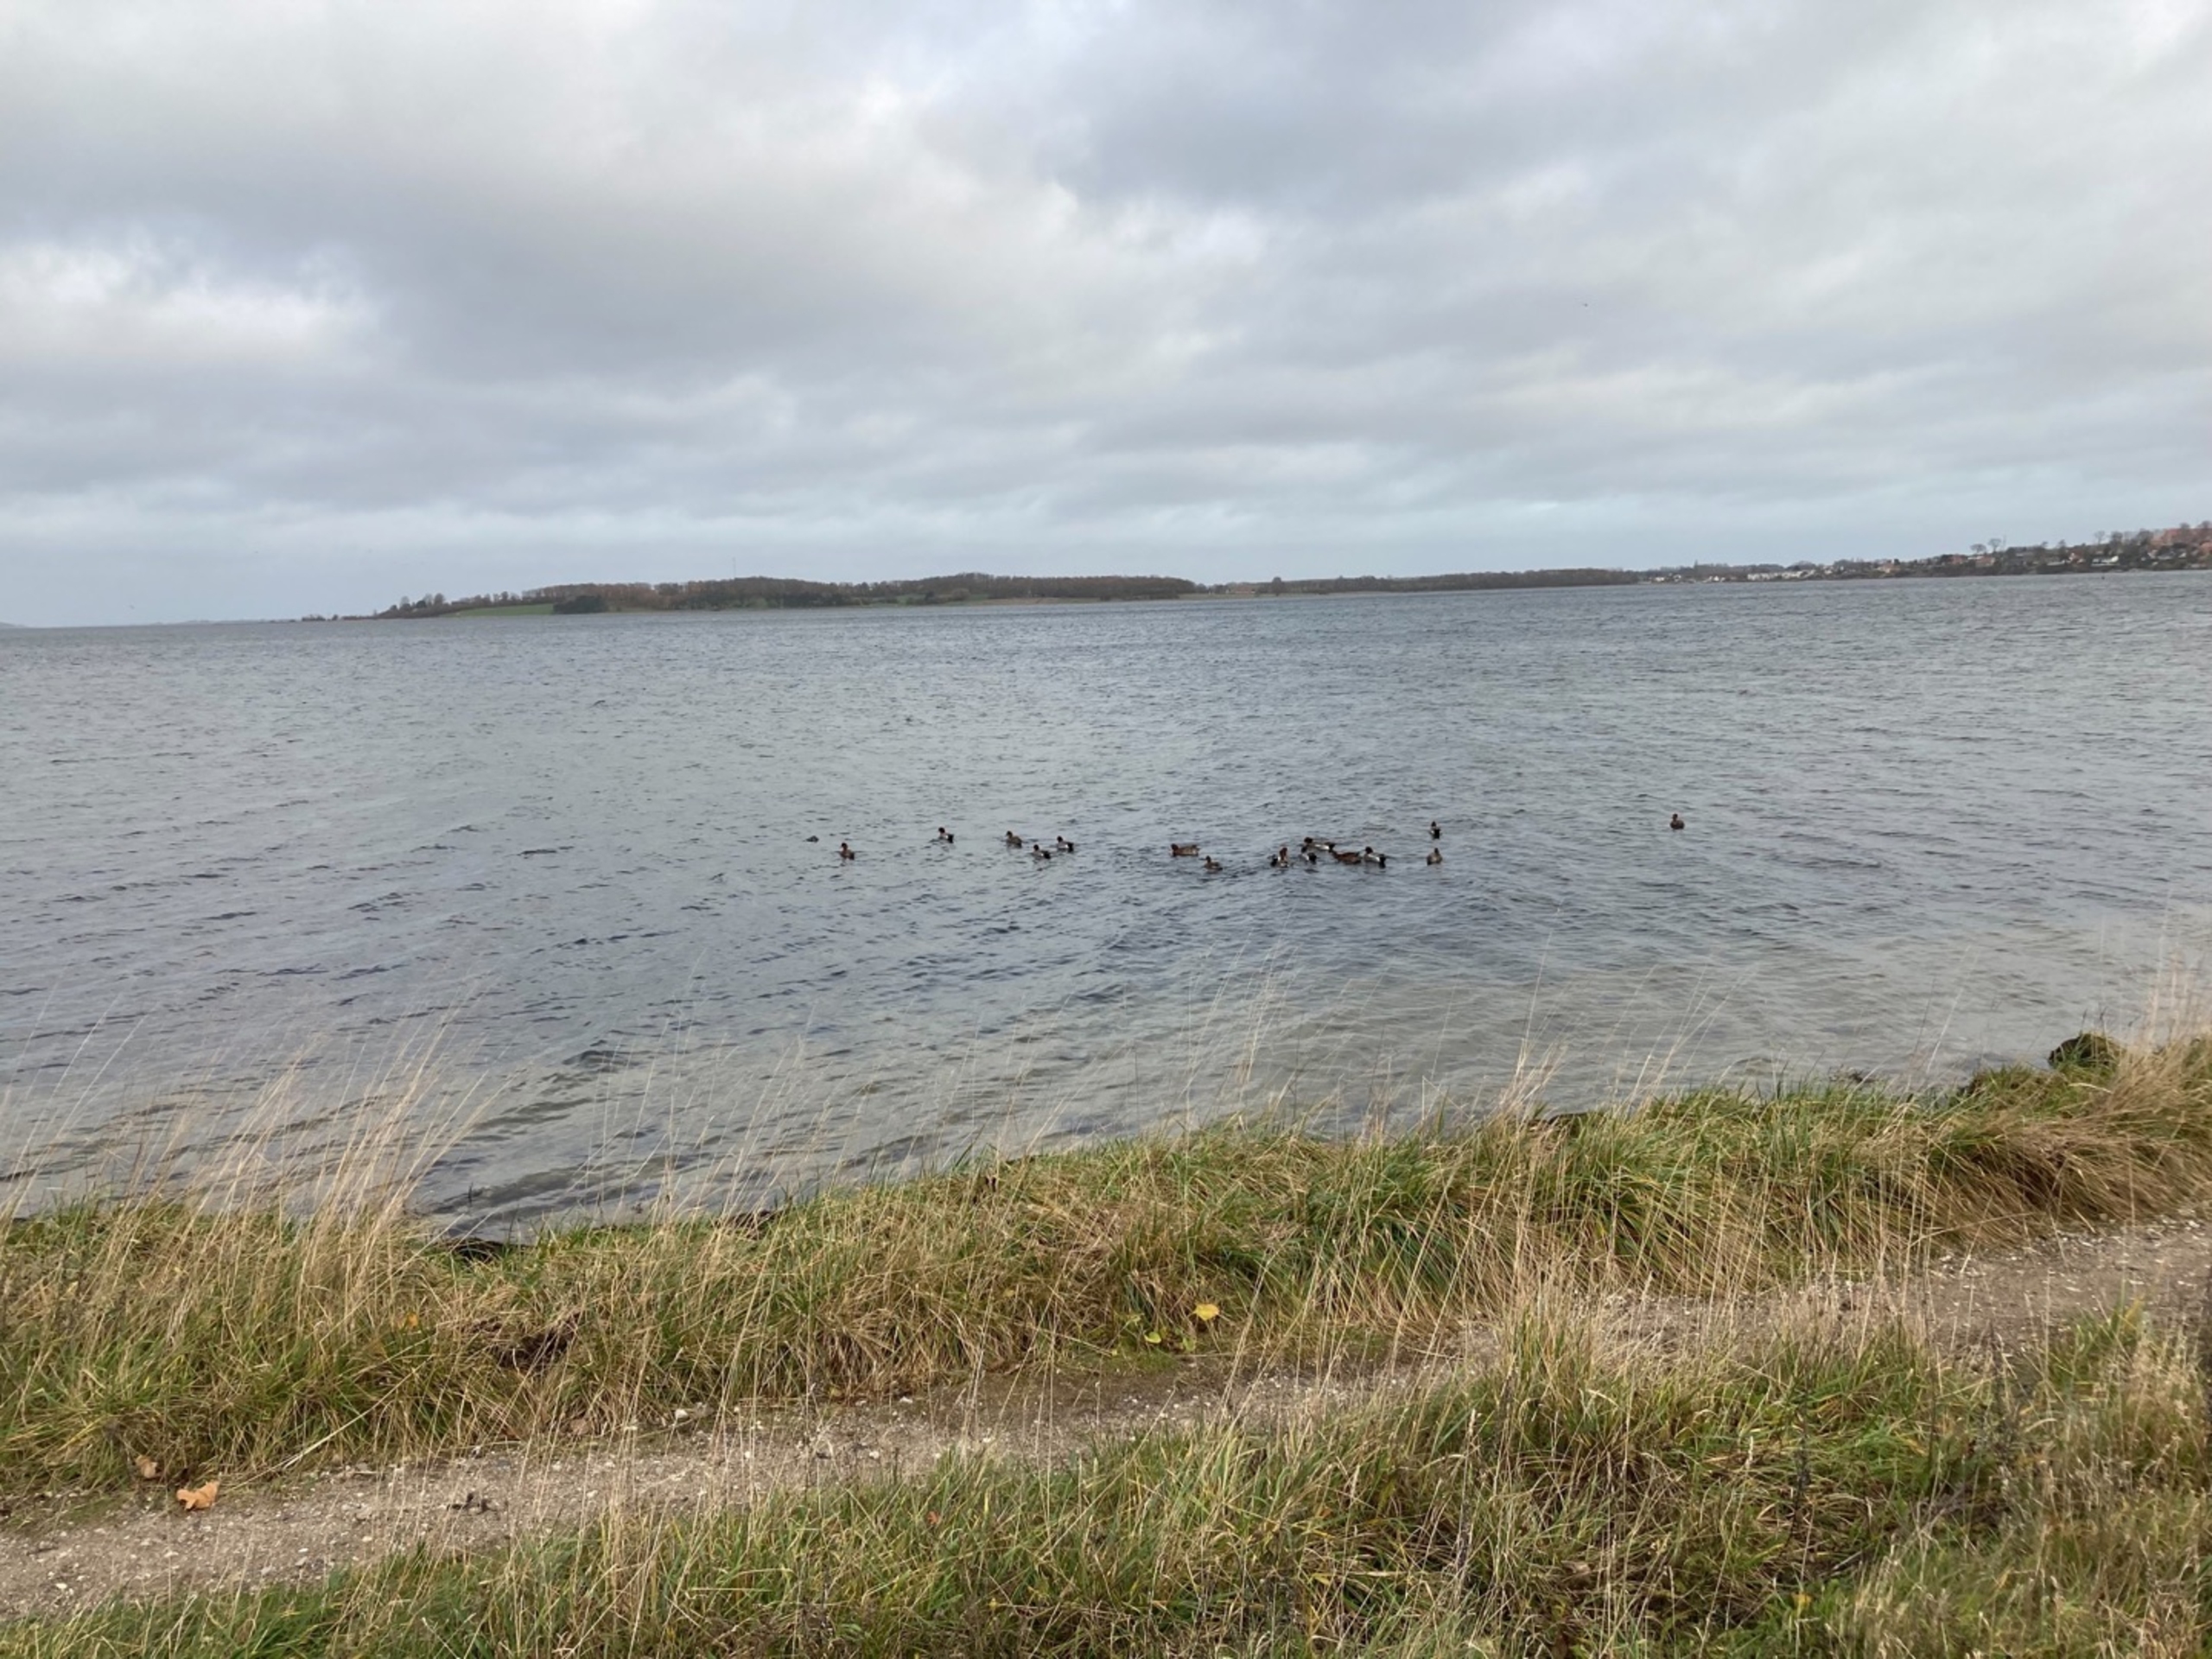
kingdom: Animalia
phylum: Chordata
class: Aves
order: Anseriformes
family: Anatidae
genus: Mareca
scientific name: Mareca penelope
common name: Pibeand
